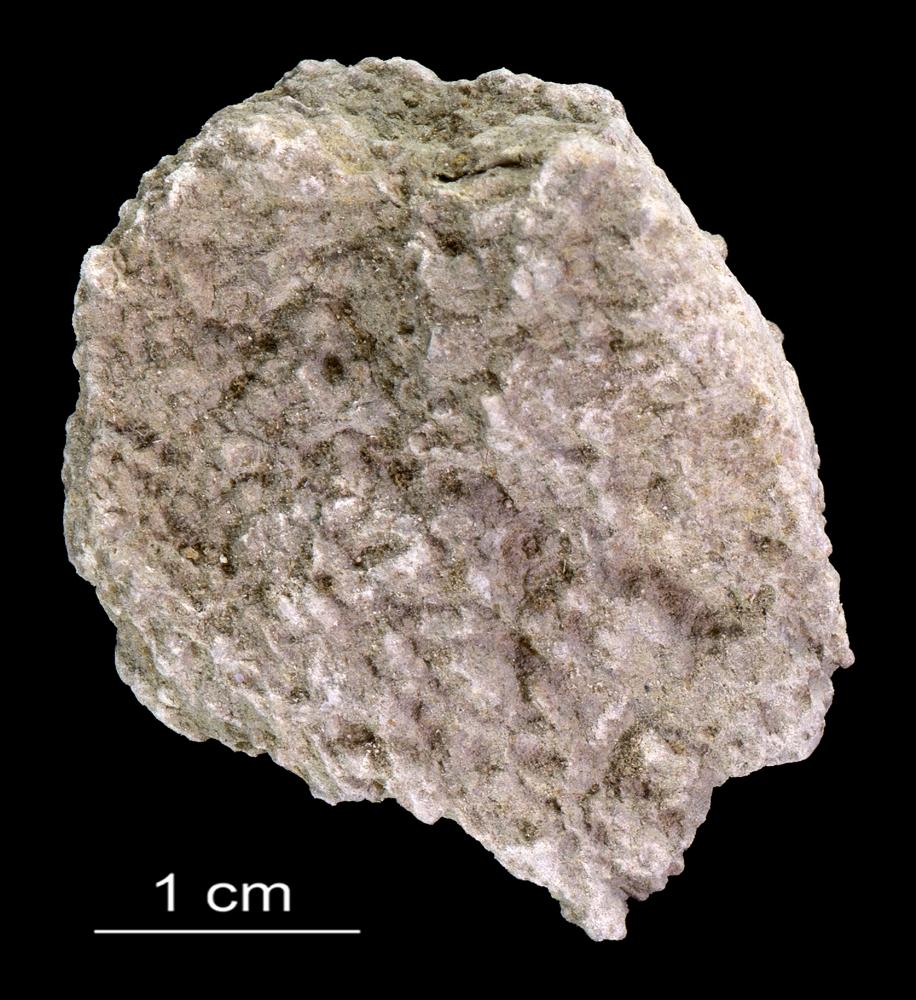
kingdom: Animalia
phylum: Annelida
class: Polychaeta
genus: Volborthella
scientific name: Volborthella tenuis
